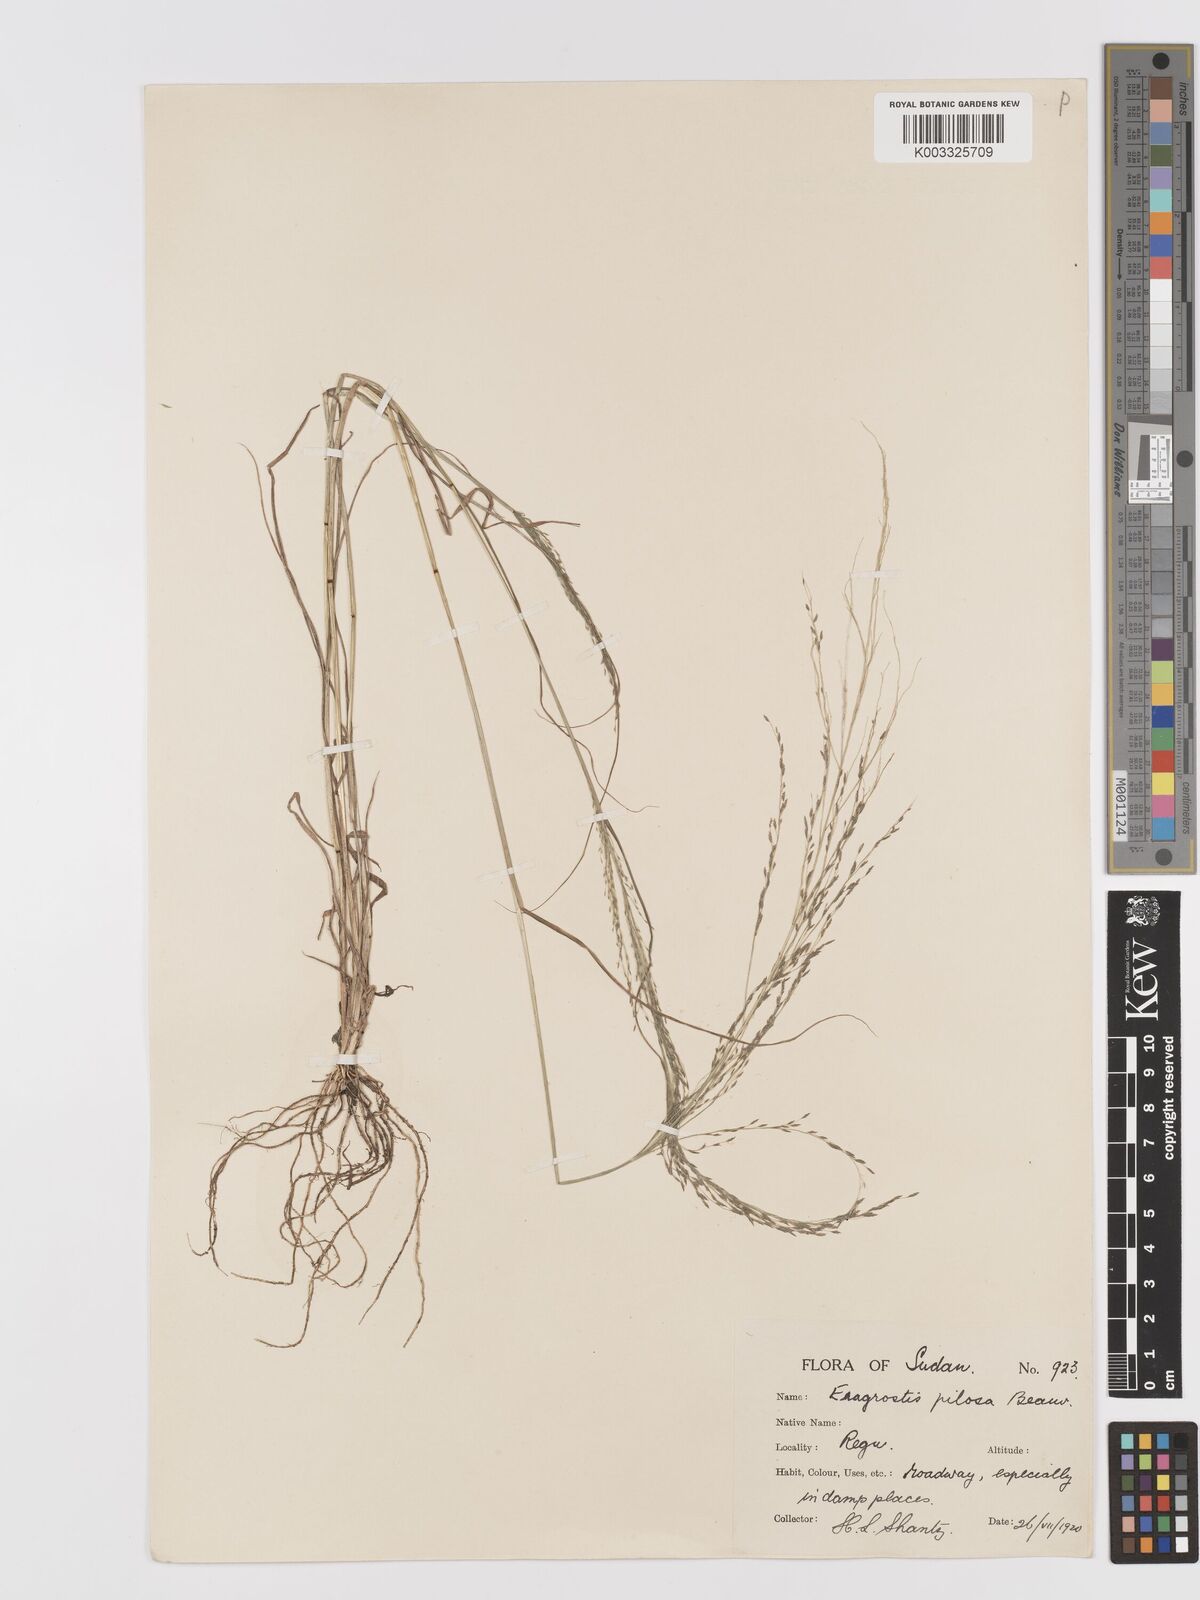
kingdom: Plantae
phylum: Tracheophyta
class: Liliopsida
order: Poales
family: Poaceae
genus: Eragrostis
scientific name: Eragrostis pilosa
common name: Indian lovegrass
